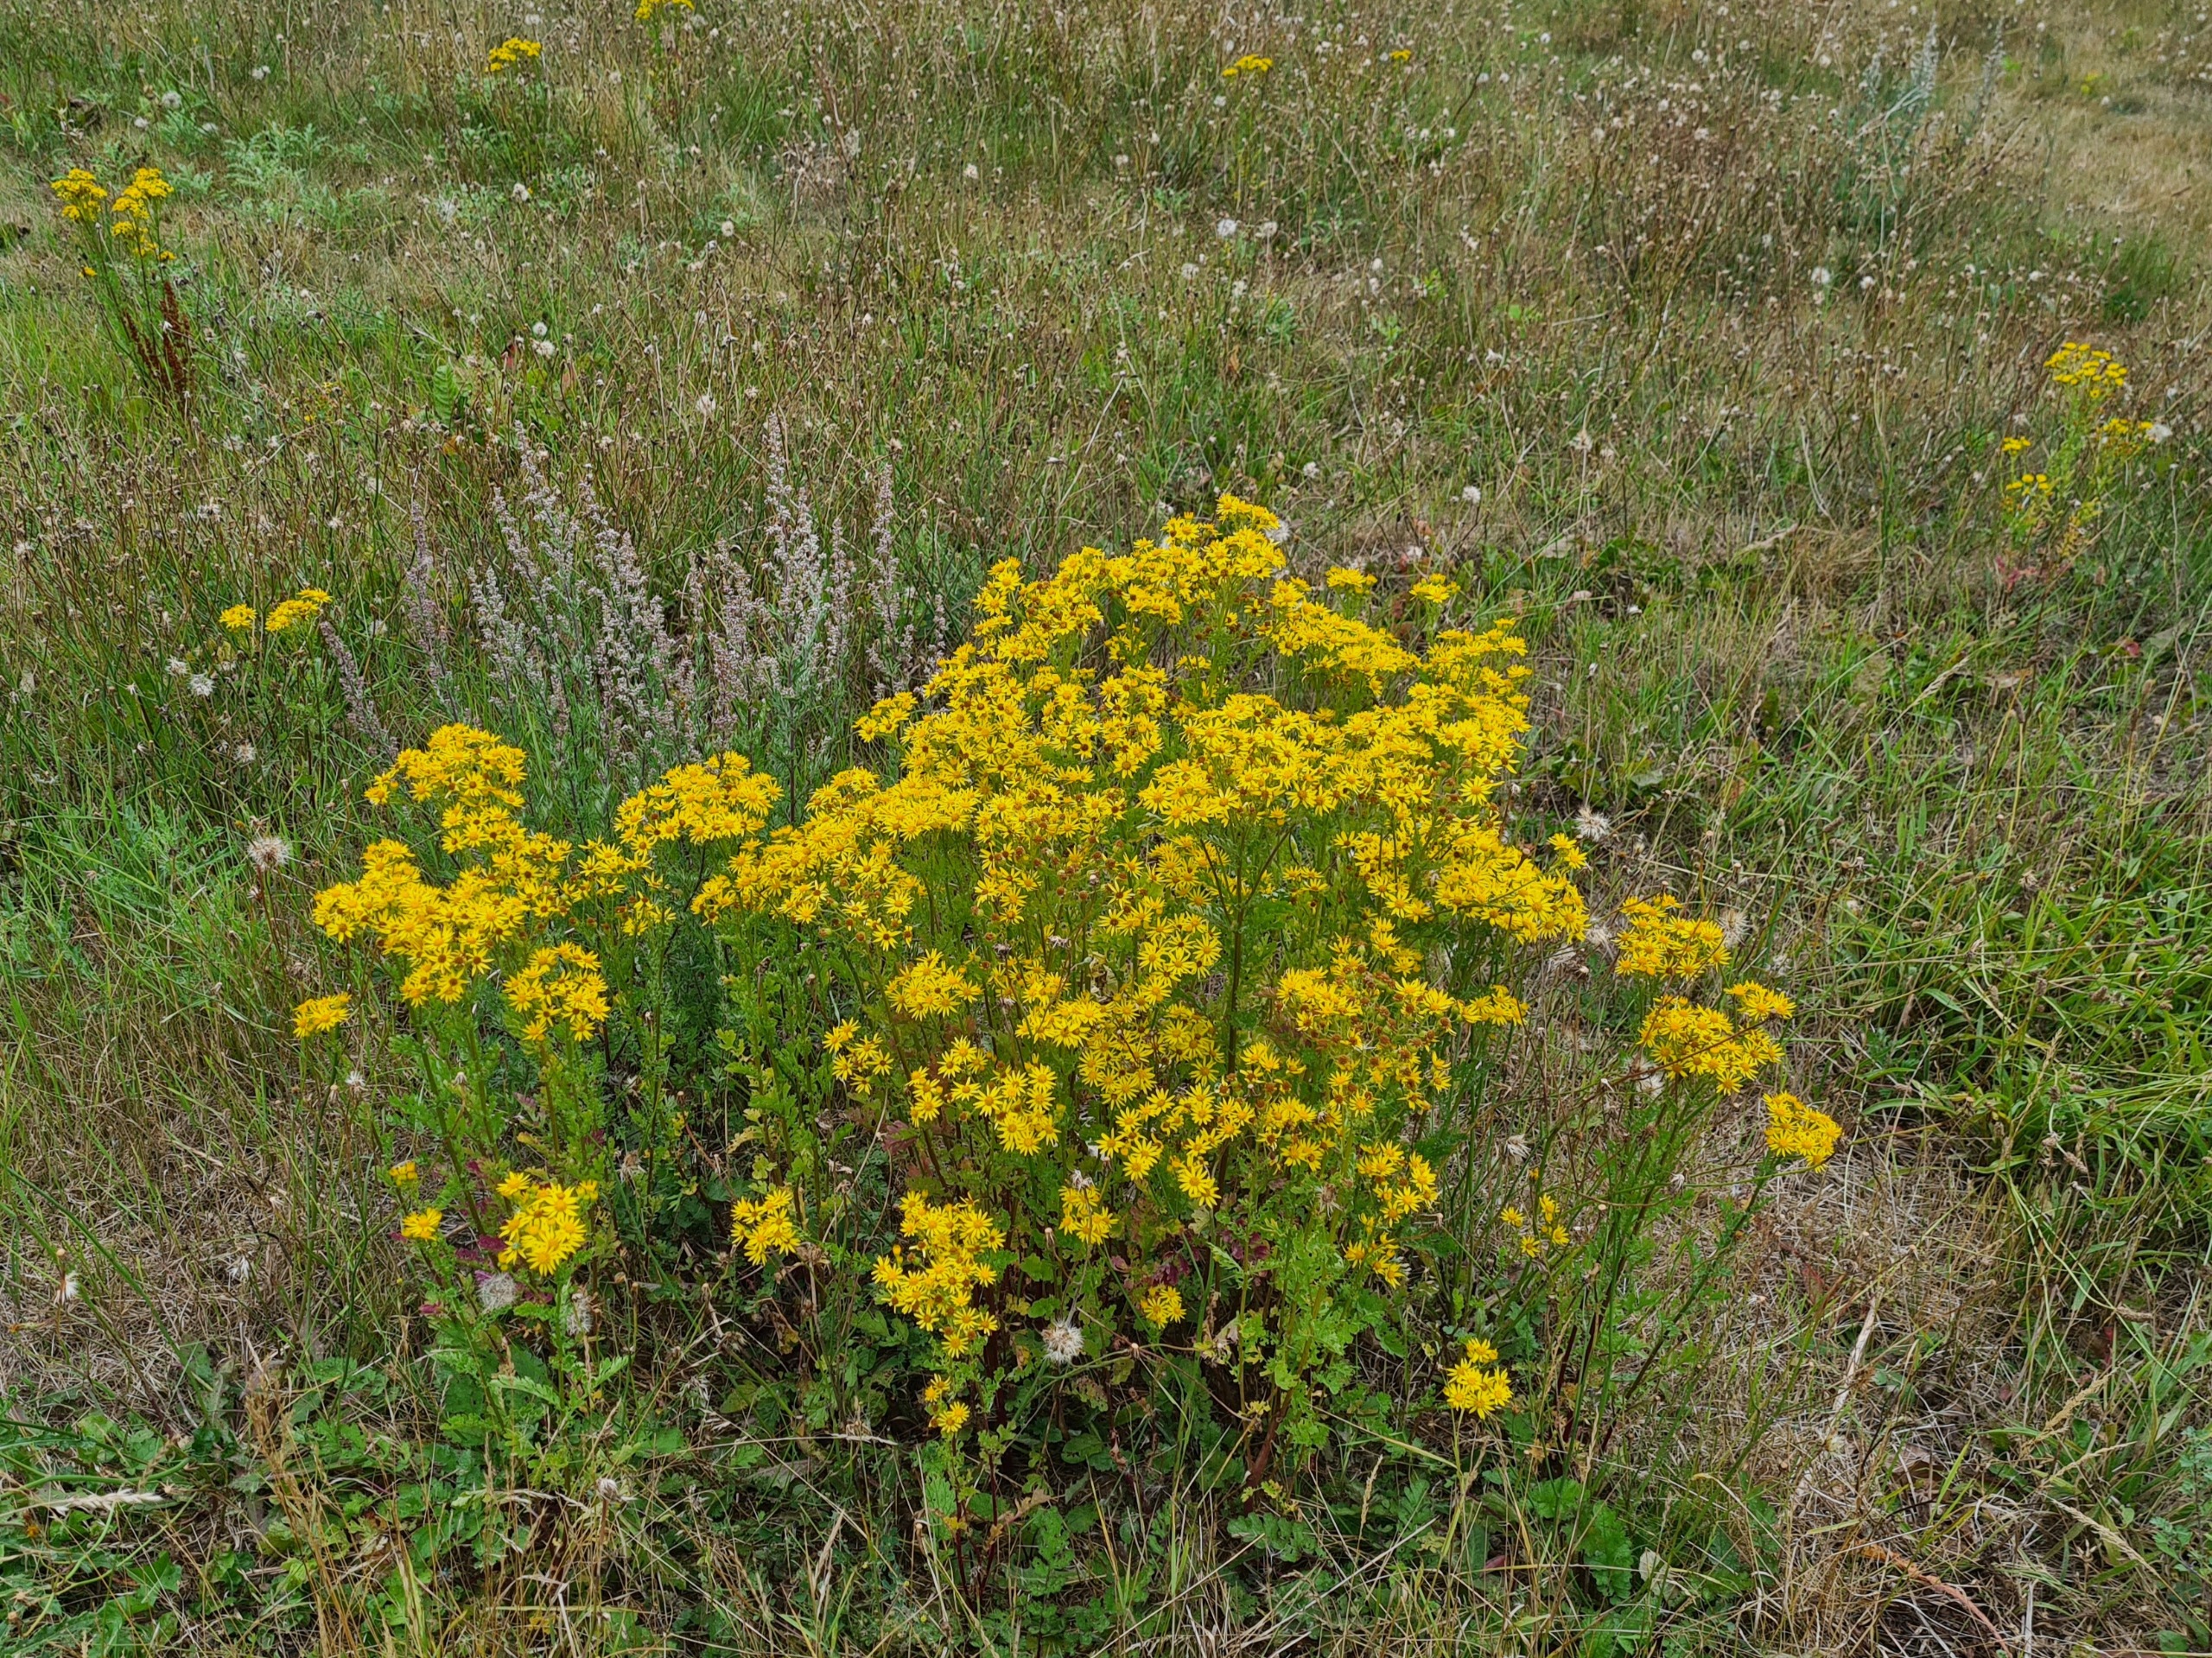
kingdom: Plantae
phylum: Tracheophyta
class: Magnoliopsida
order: Asterales
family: Asteraceae
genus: Jacobaea
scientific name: Jacobaea vulgaris
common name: Eng-brandbæger
